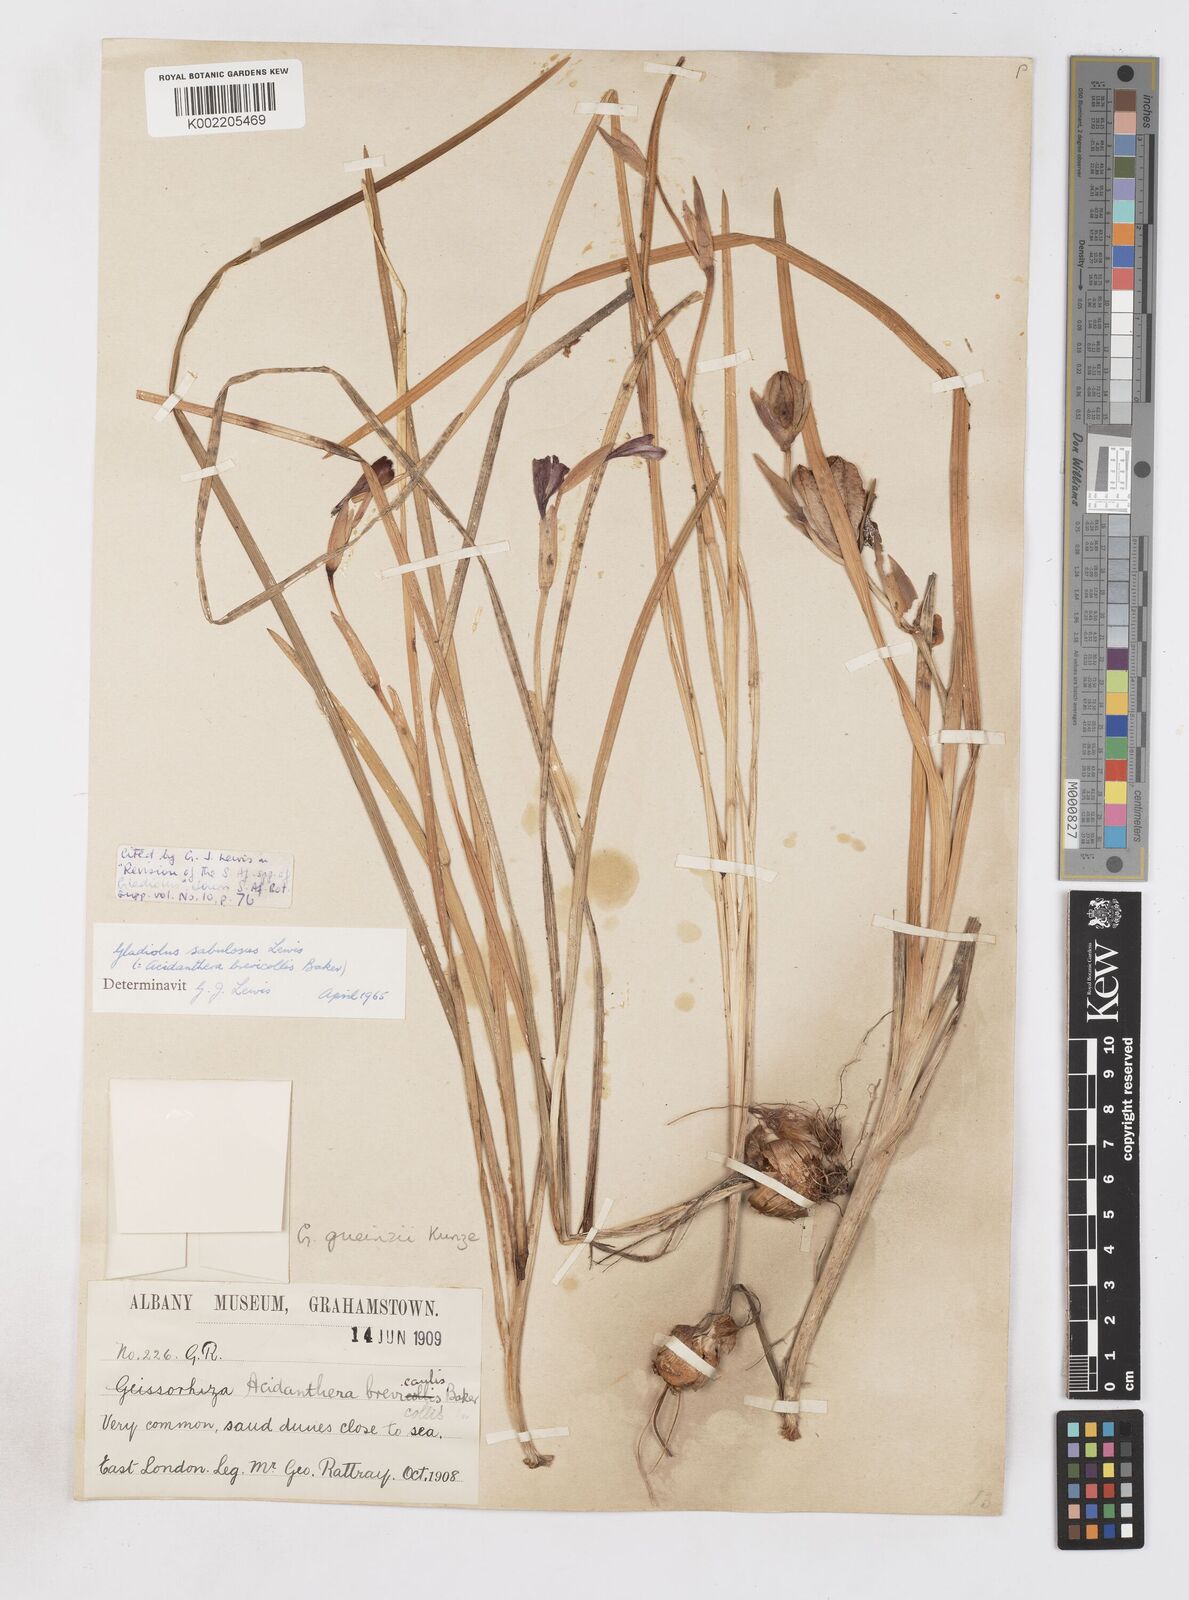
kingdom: Plantae
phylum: Tracheophyta
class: Liliopsida
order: Asparagales
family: Iridaceae
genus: Gladiolus
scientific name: Gladiolus gueinzii
